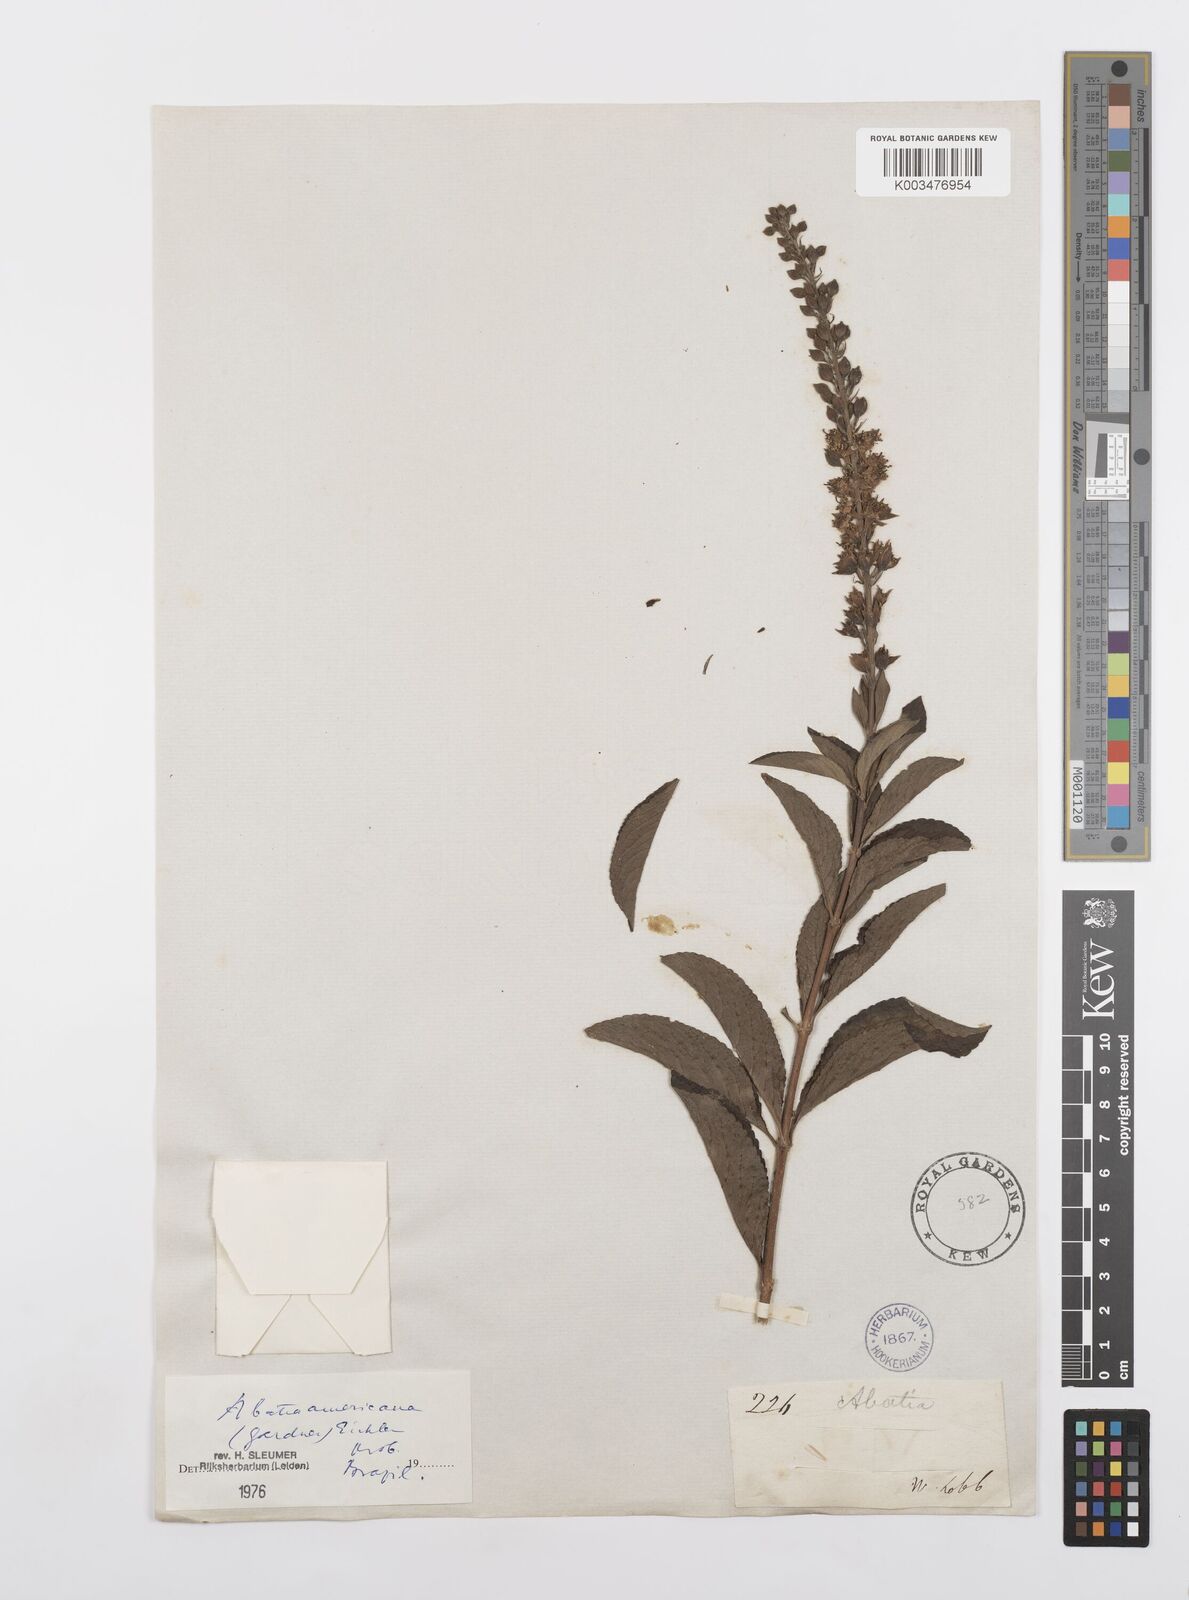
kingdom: Plantae
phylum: Tracheophyta
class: Magnoliopsida
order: Malpighiales
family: Salicaceae
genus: Abatia
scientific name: Abatia americana
